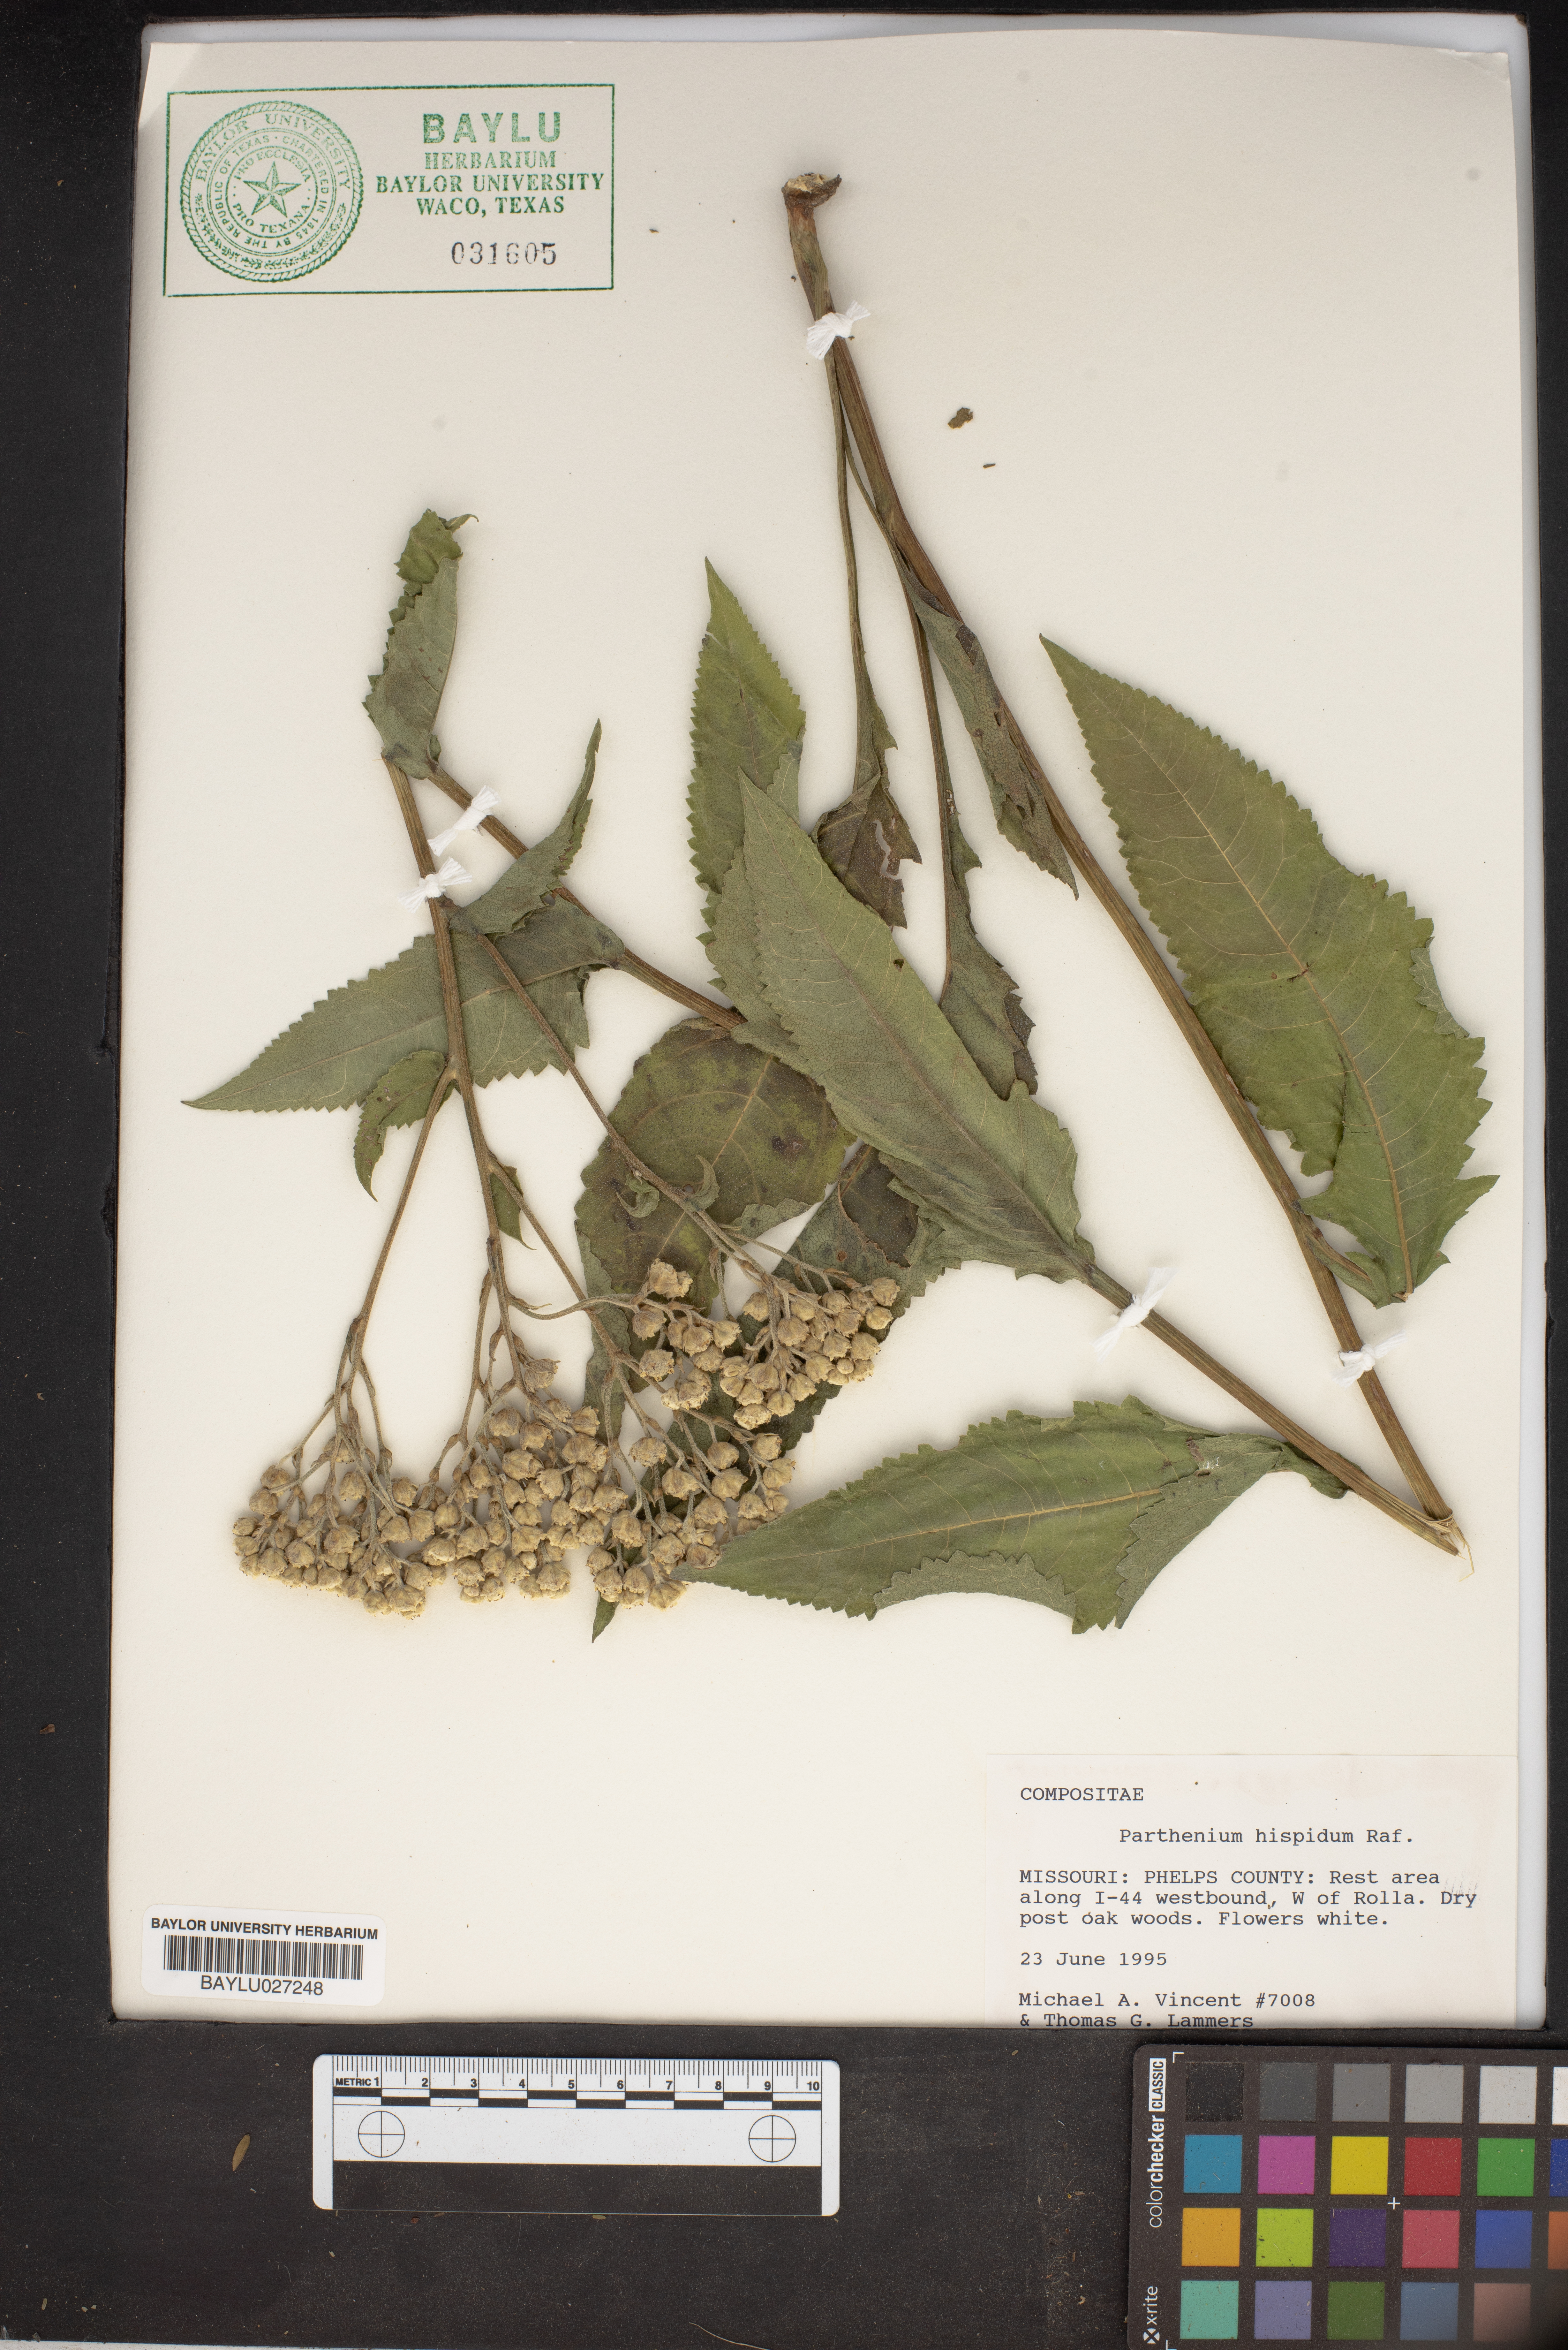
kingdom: Plantae
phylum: Tracheophyta
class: Magnoliopsida
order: Asterales
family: Asteraceae
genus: Parthenium
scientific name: Parthenium hispidum
